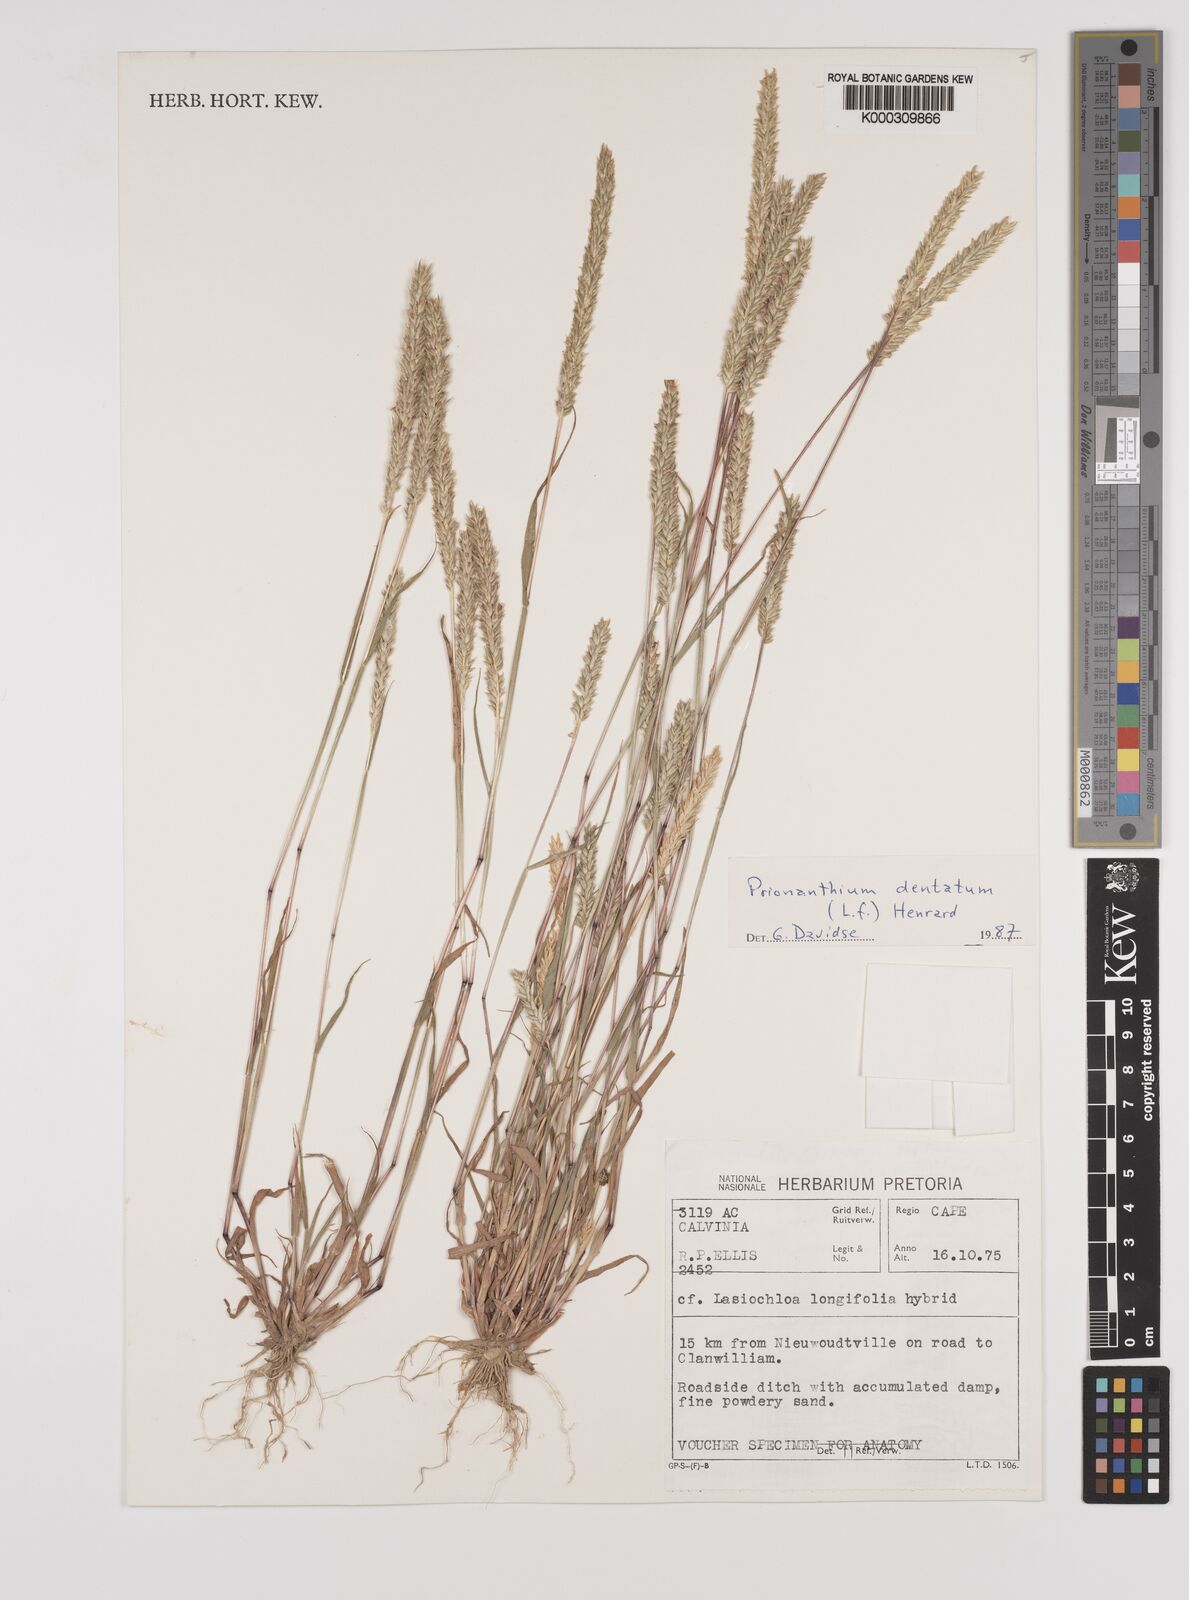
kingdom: Plantae
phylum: Tracheophyta
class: Liliopsida
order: Poales
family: Poaceae
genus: Pentameris
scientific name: Pentameris dentata
